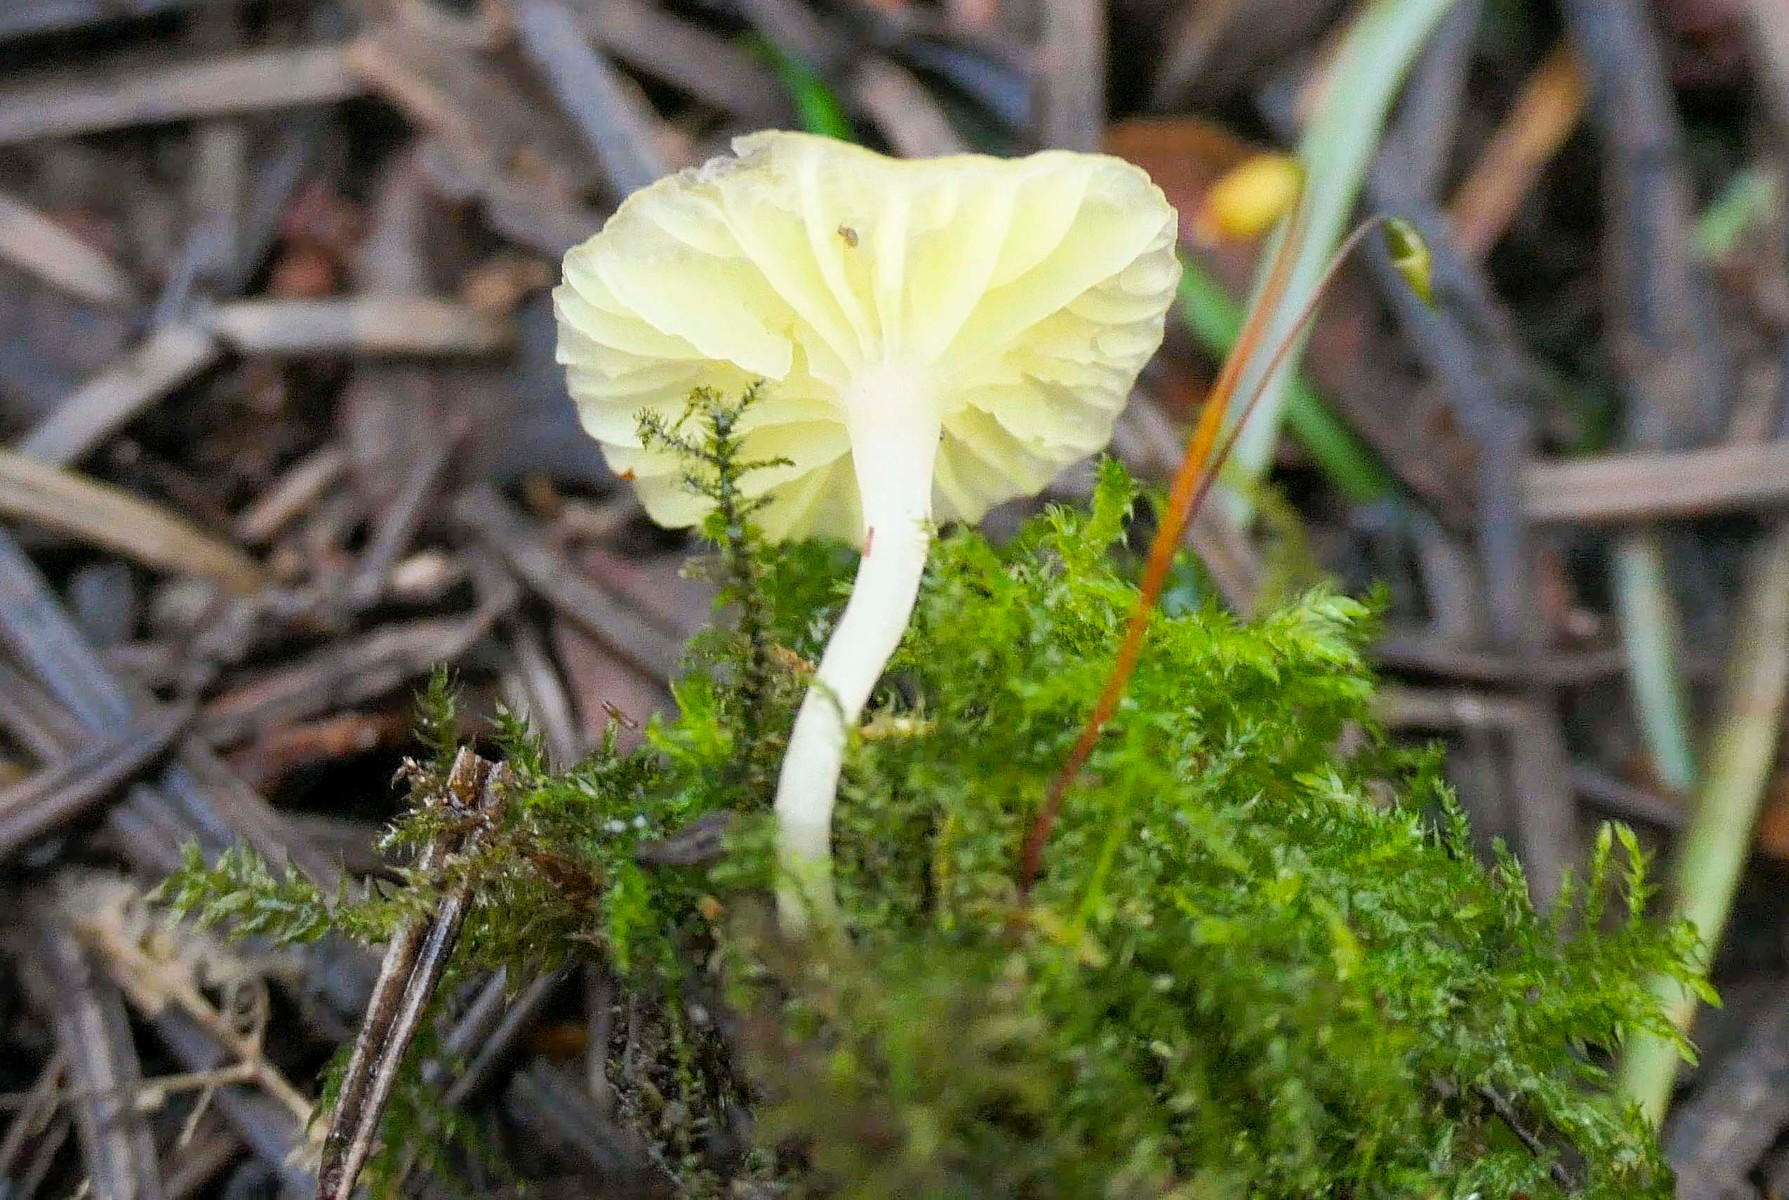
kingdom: Fungi
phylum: Basidiomycota
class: Agaricomycetes
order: Agaricales
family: Hygrophoraceae
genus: Chrysomphalina
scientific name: Chrysomphalina grossula
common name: stød-gyldenblad
